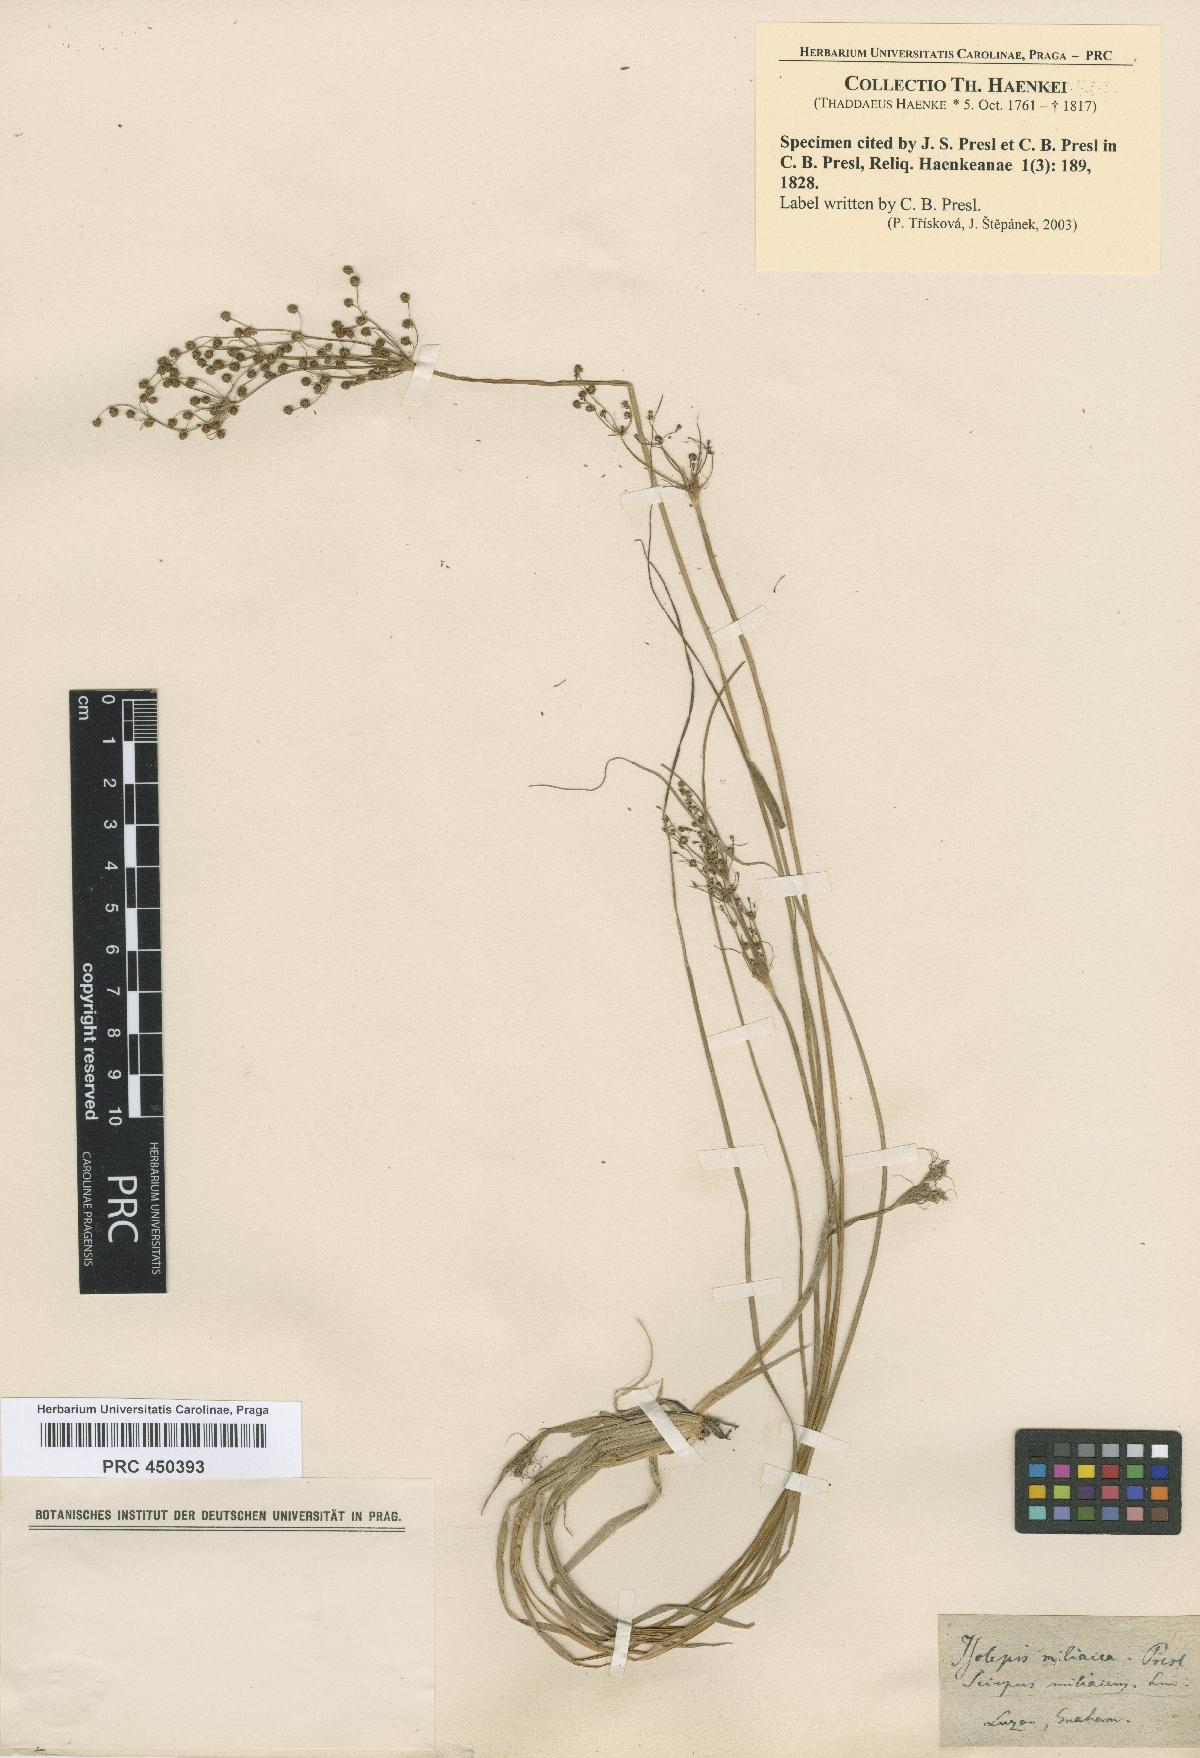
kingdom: Plantae
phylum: Tracheophyta
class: Liliopsida
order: Poales
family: Cyperaceae
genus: Fimbristylis
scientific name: Fimbristylis quinquangularis
